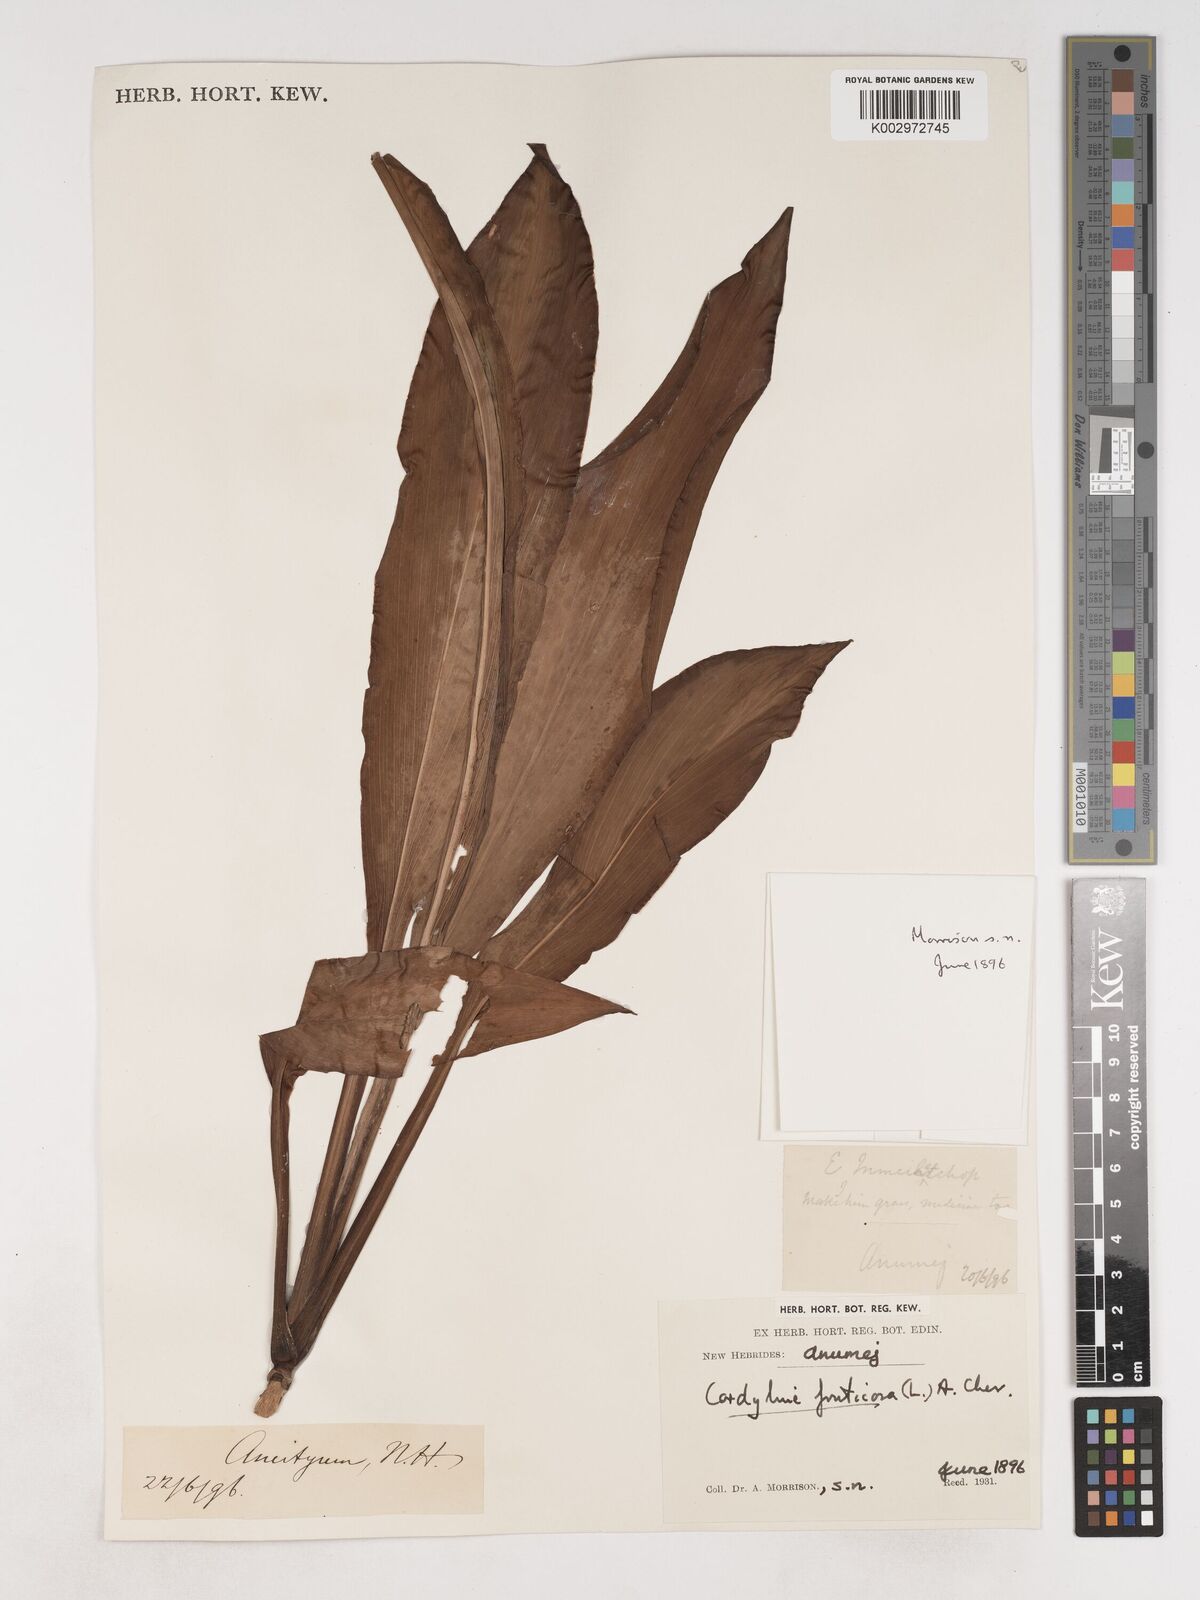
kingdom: Plantae
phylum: Tracheophyta
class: Liliopsida
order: Asparagales
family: Asparagaceae
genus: Cordyline
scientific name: Cordyline fruticosa
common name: Good-luck-plant
